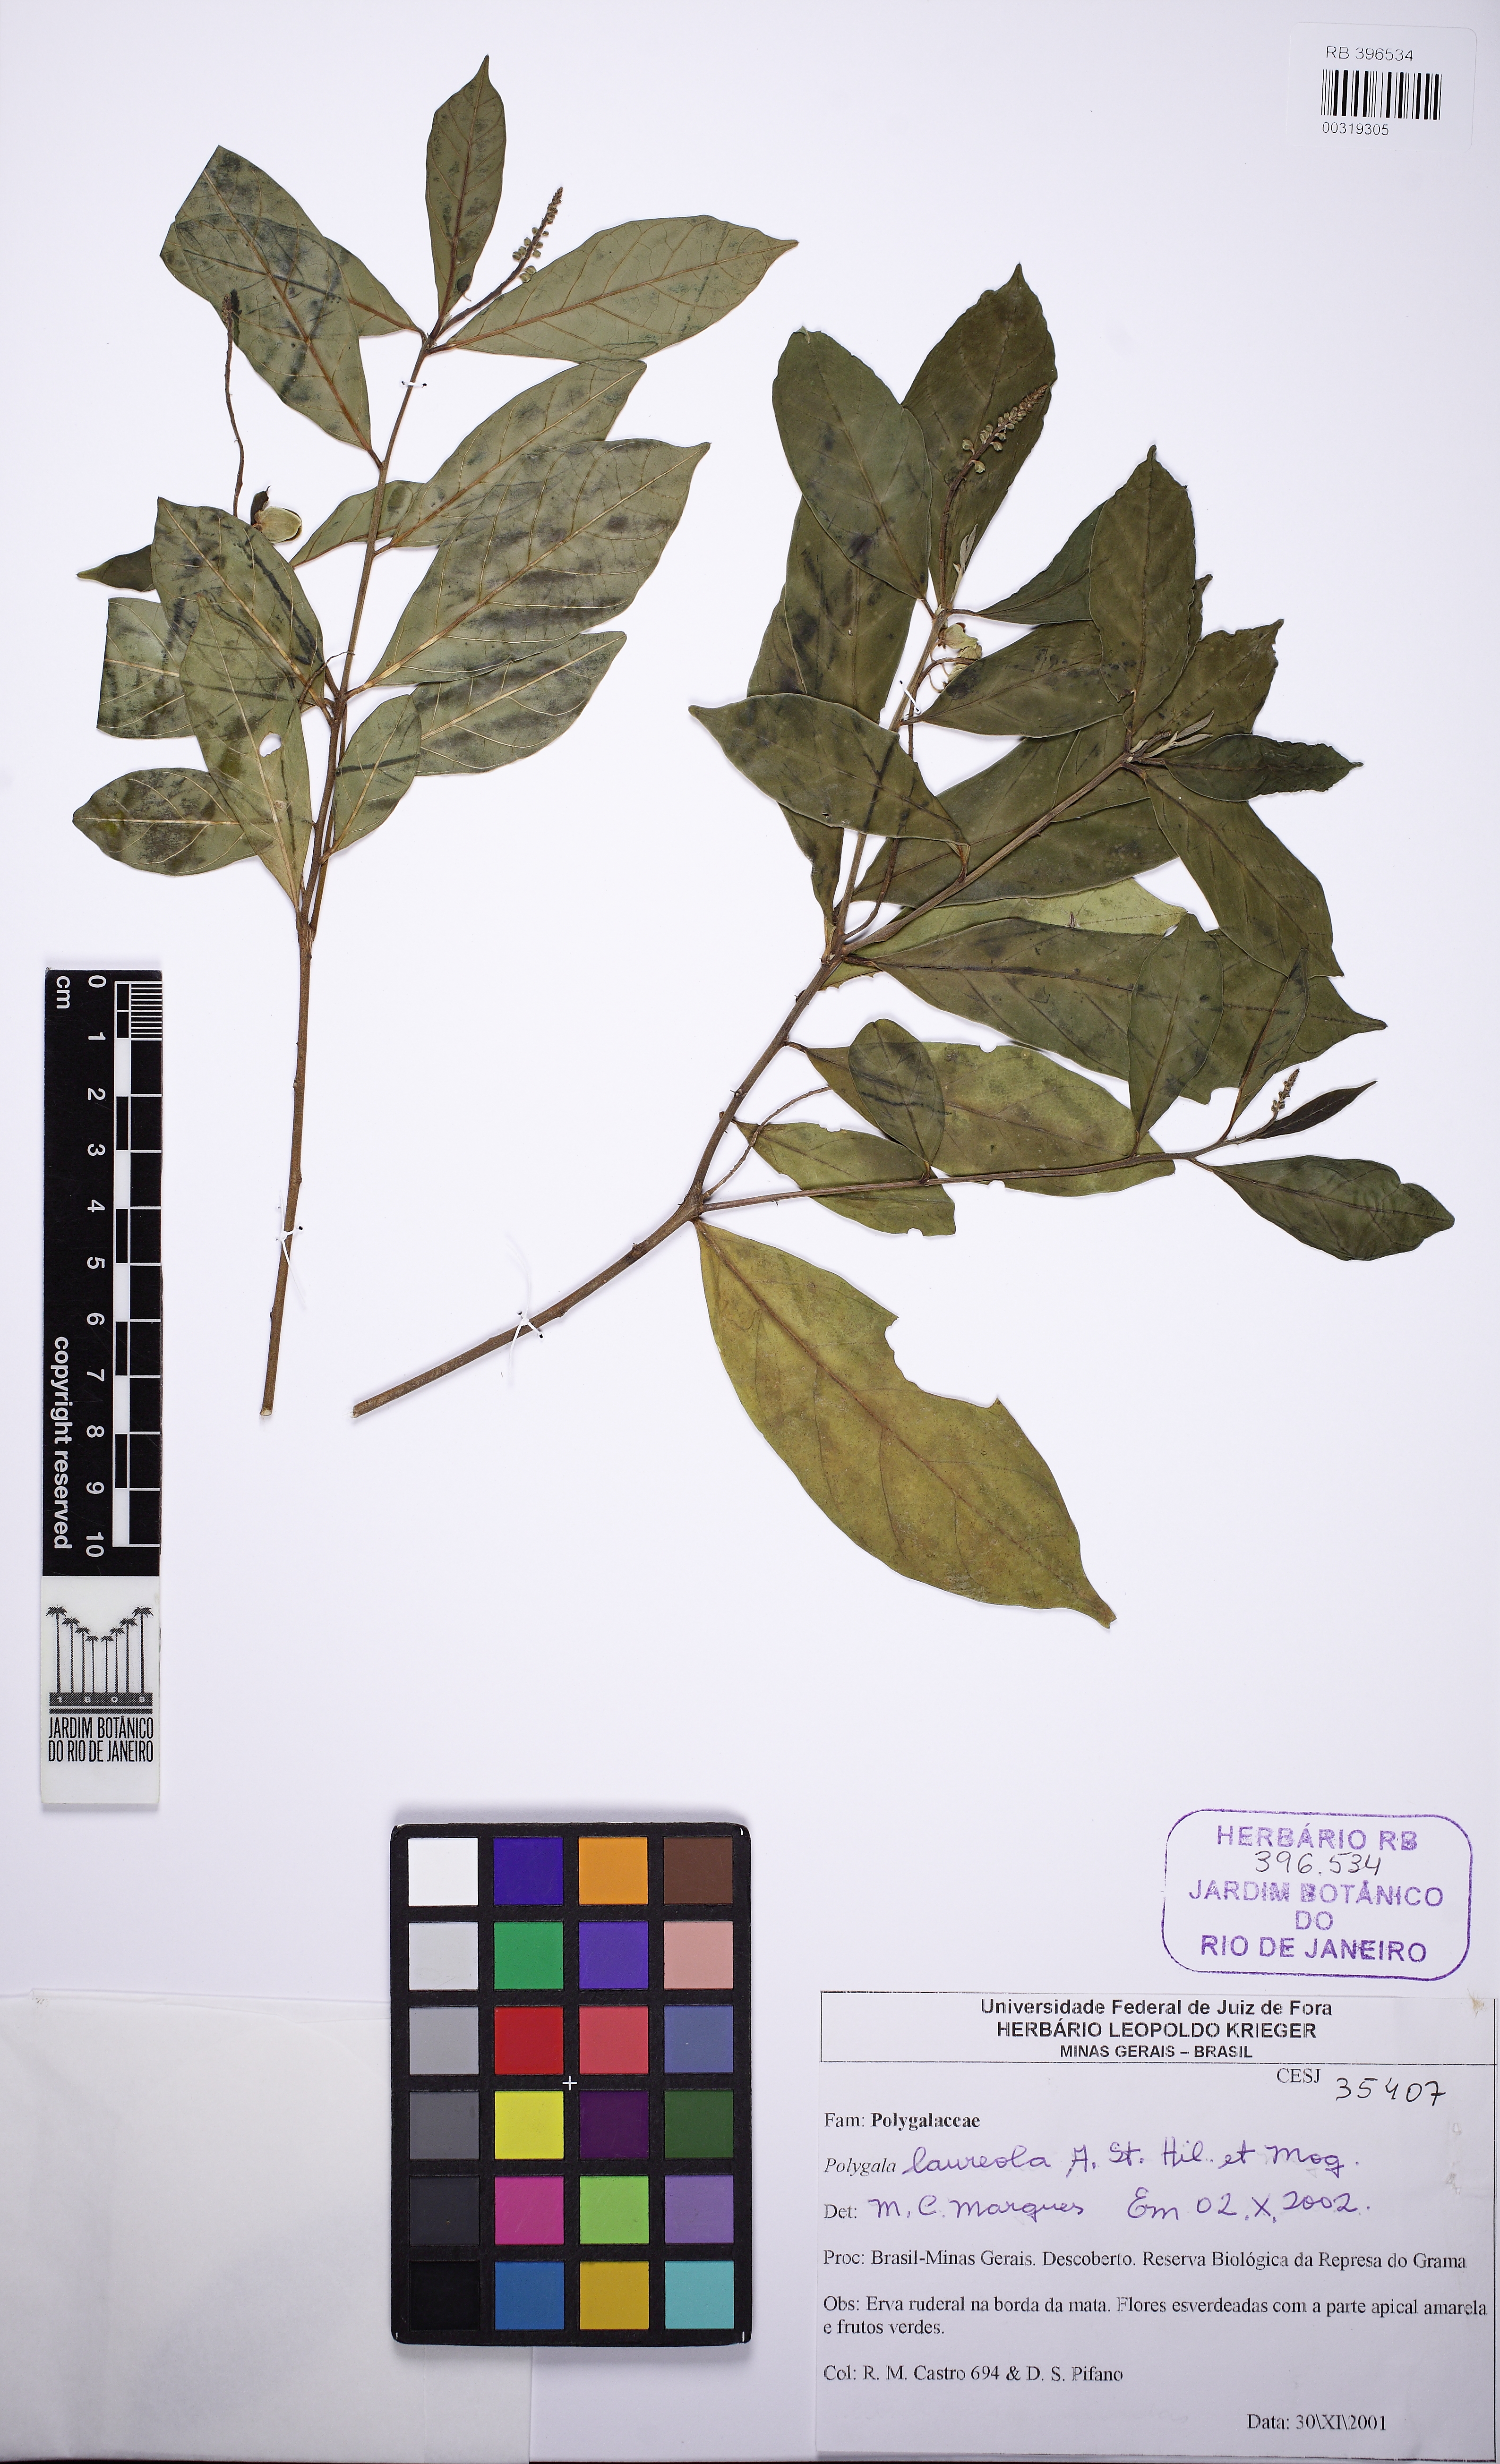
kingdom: Plantae
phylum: Tracheophyta
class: Magnoliopsida
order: Fabales
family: Polygalaceae
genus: Caamembeca
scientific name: Caamembeca salicifolia
